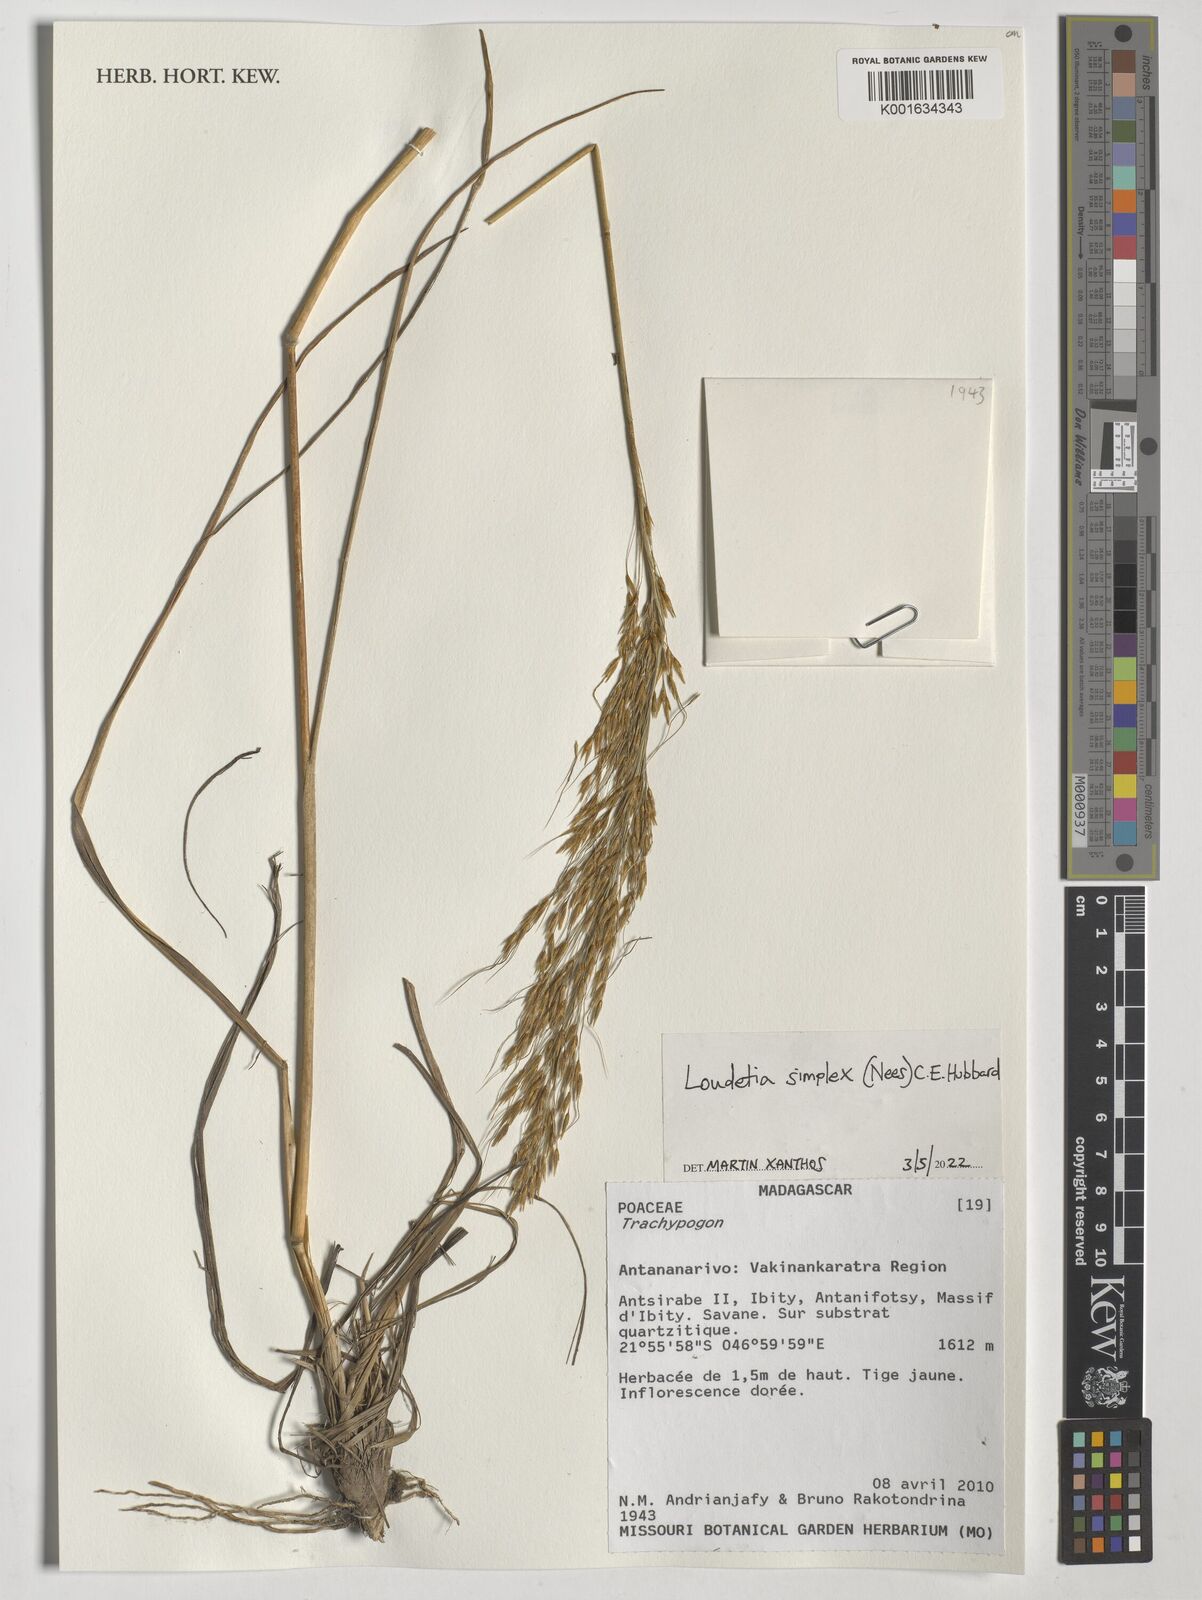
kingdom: Plantae
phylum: Tracheophyta
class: Liliopsida
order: Poales
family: Poaceae
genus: Loudetia
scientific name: Loudetia simplex
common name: Common russet grass
